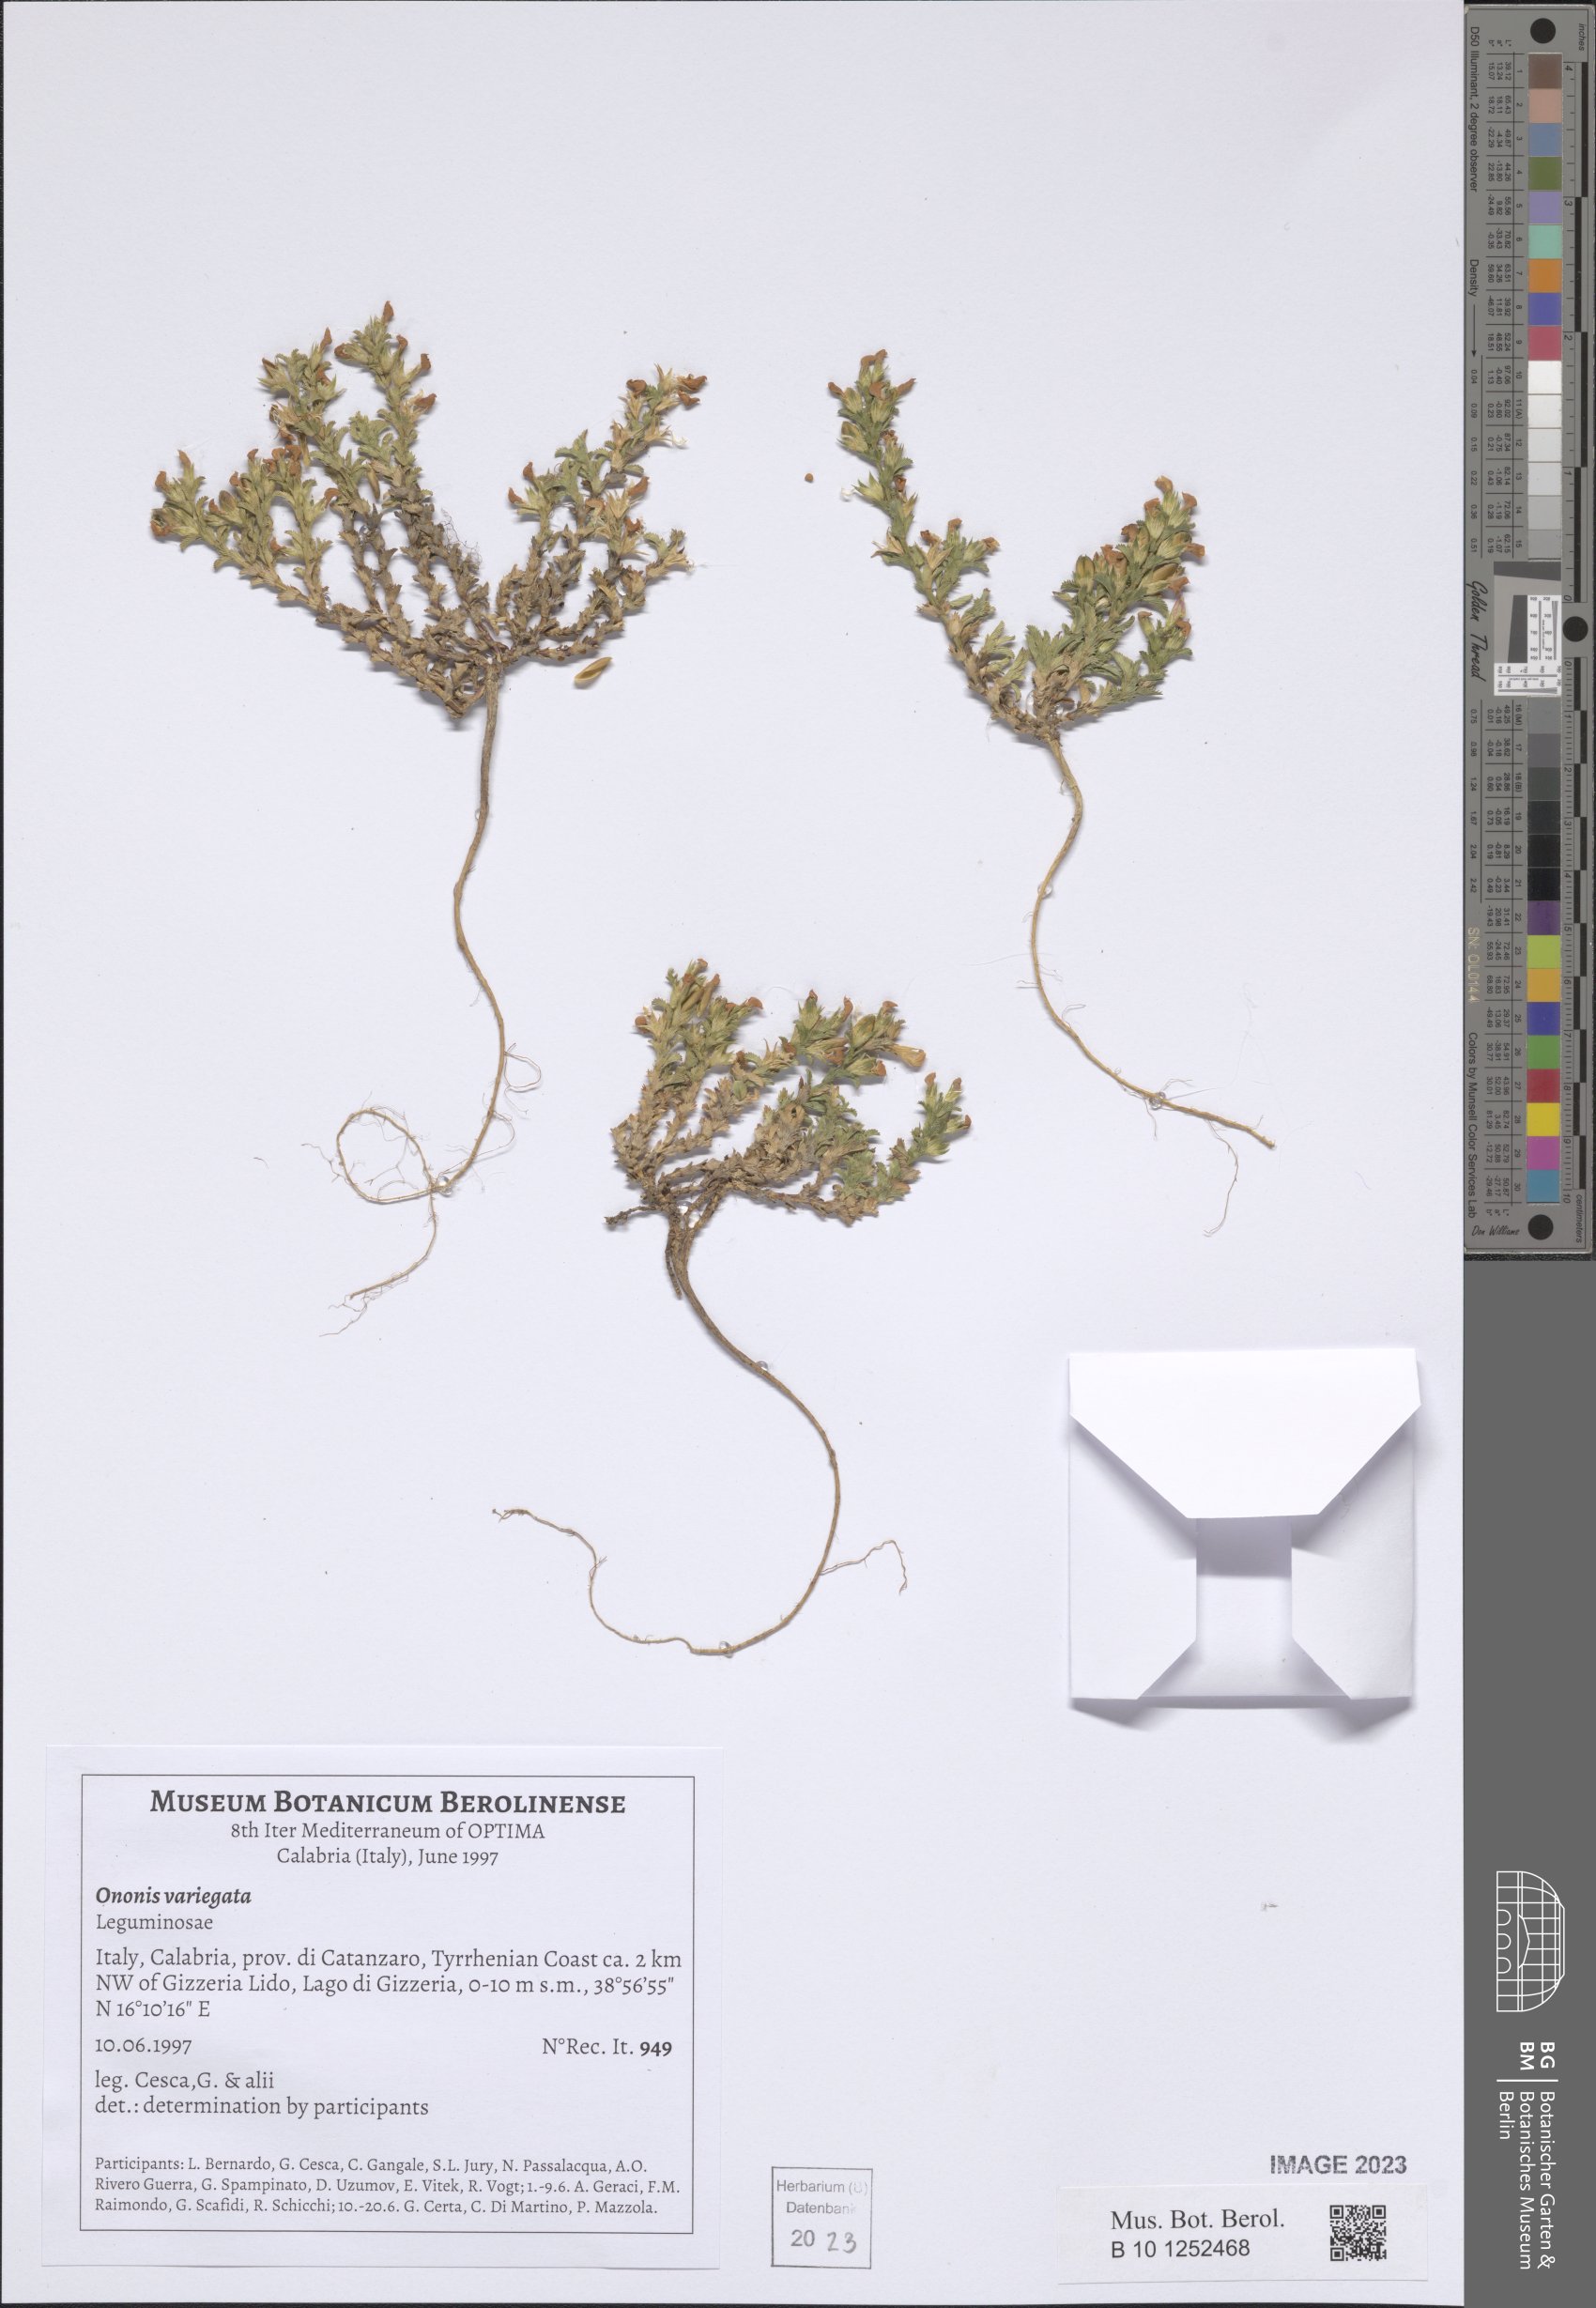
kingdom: Plantae
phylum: Tracheophyta
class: Magnoliopsida
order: Fabales
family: Fabaceae
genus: Ononis
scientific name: Ononis variegata
